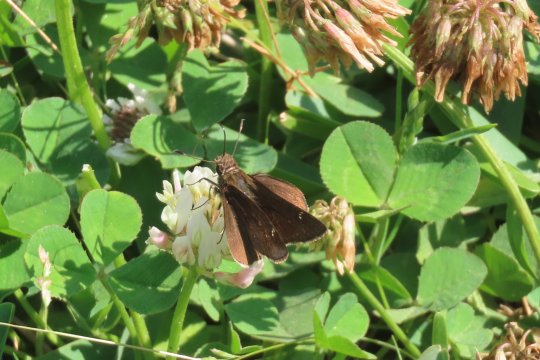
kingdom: Animalia
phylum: Arthropoda
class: Insecta
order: Lepidoptera
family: Hesperiidae
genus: Lerema
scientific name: Lerema accius
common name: Clouded Skipper
